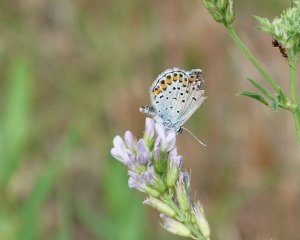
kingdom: Animalia
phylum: Arthropoda
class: Insecta
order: Lepidoptera
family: Lycaenidae
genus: Lycaeides
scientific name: Lycaeides melissa
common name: Melissa Blue
